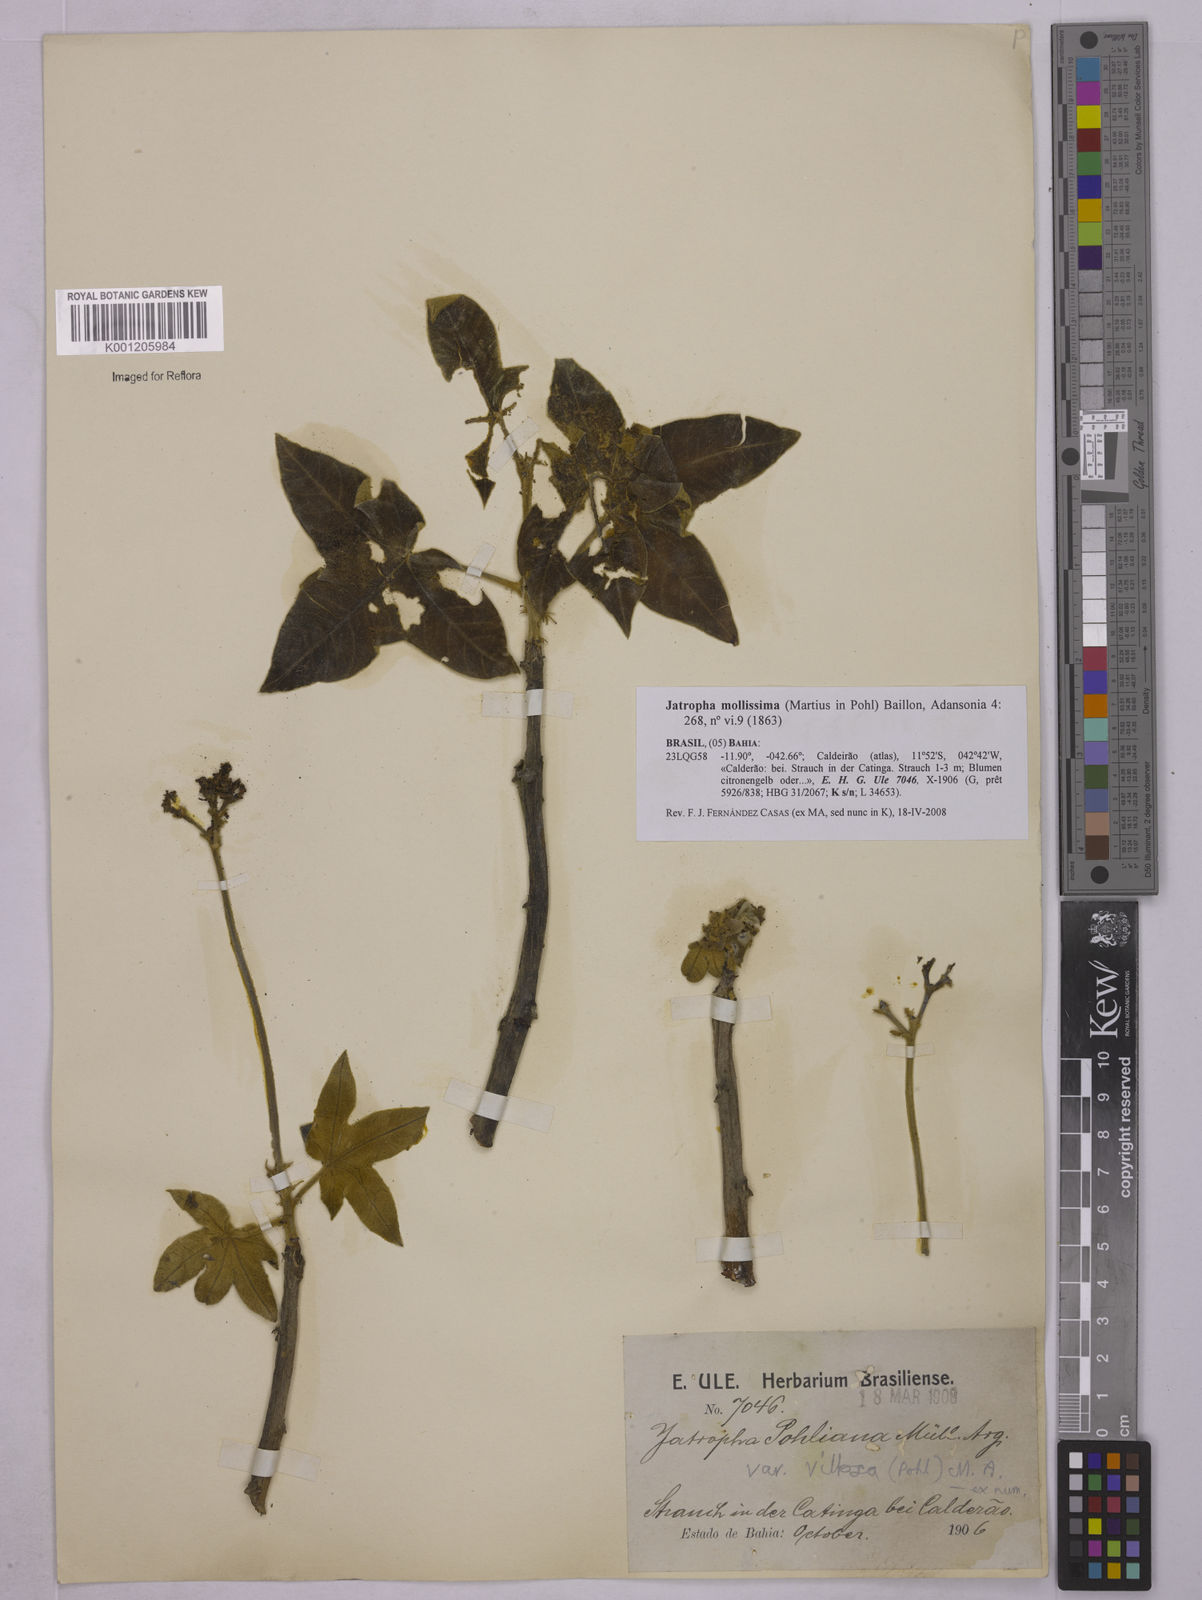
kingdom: Plantae
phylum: Tracheophyta
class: Magnoliopsida
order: Malpighiales
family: Euphorbiaceae
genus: Jatropha
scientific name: Jatropha mollissima
